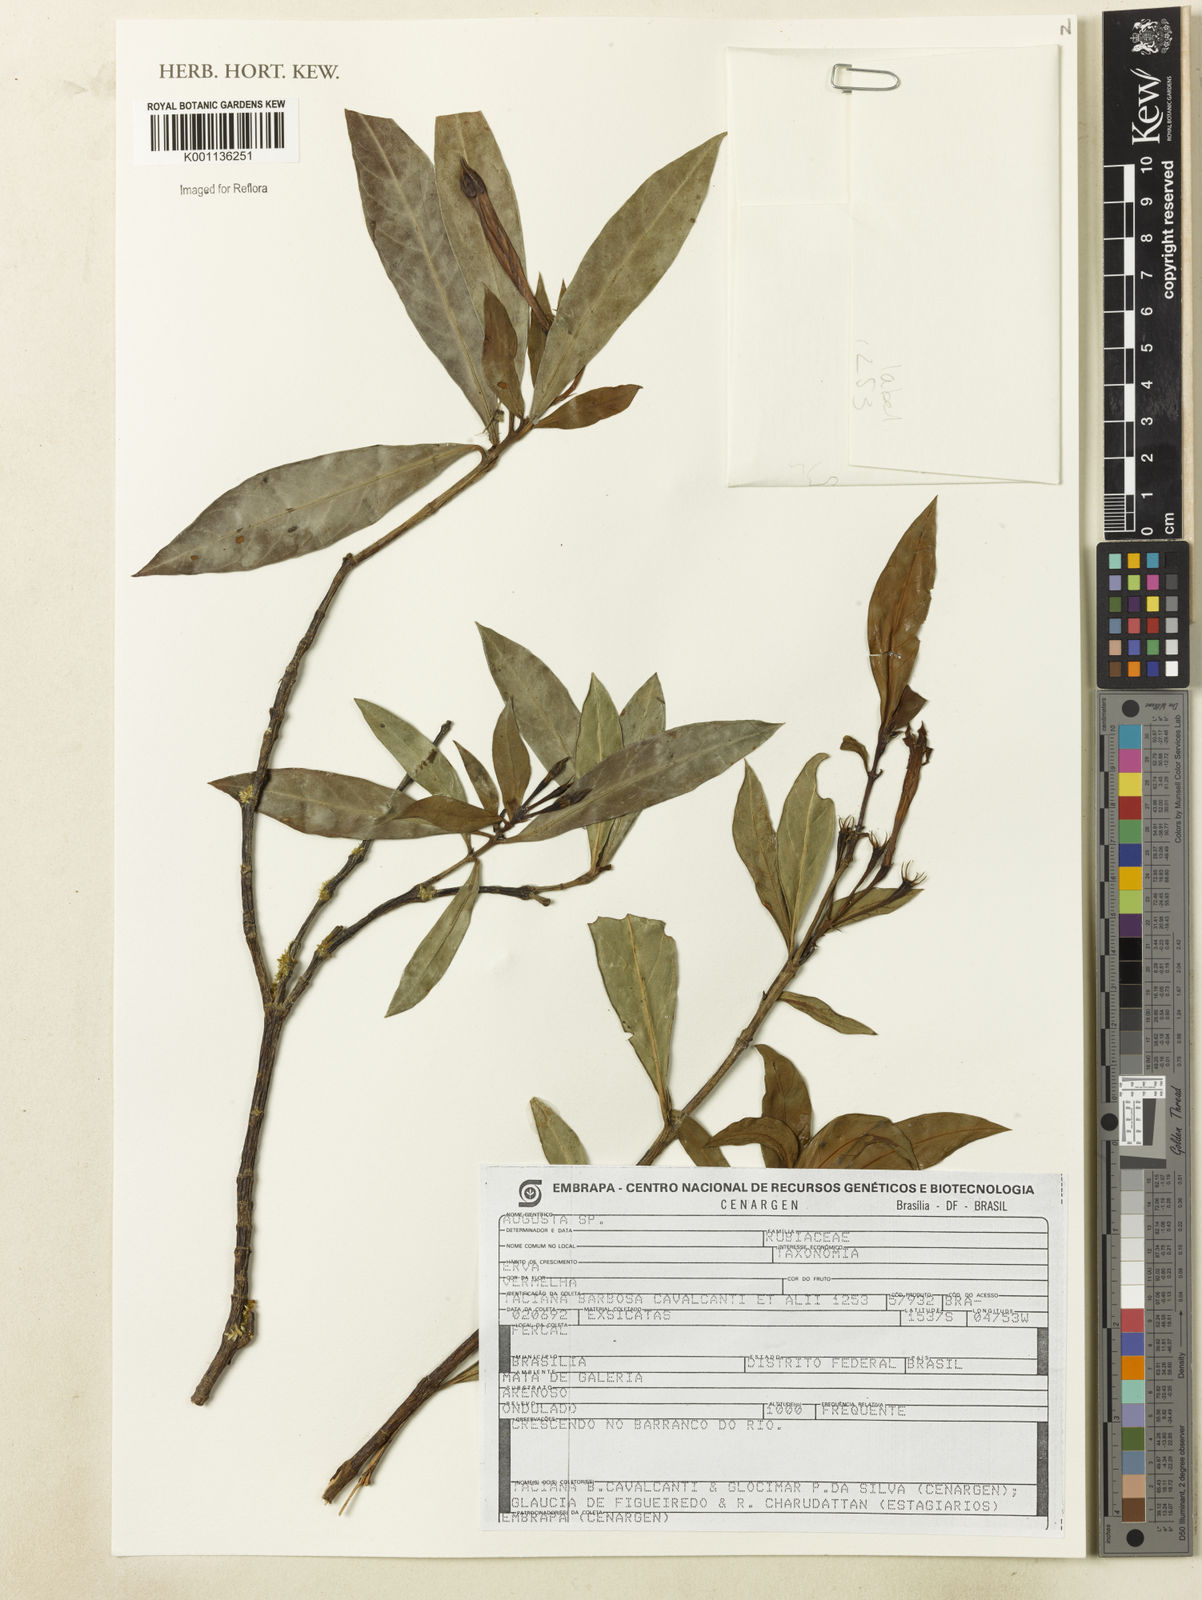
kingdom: Plantae
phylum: Tracheophyta
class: Magnoliopsida
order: Gentianales
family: Rubiaceae
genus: Augusta
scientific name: Augusta
